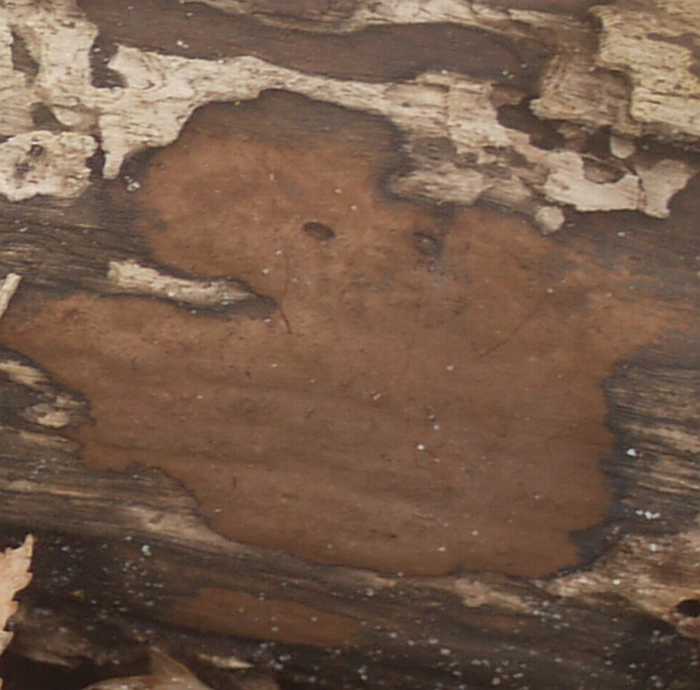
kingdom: Fungi
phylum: Ascomycota
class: Sordariomycetes
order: Xylariales
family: Hypoxylaceae
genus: Hypoxylon
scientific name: Hypoxylon petriniae
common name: nedsænket kulbær
